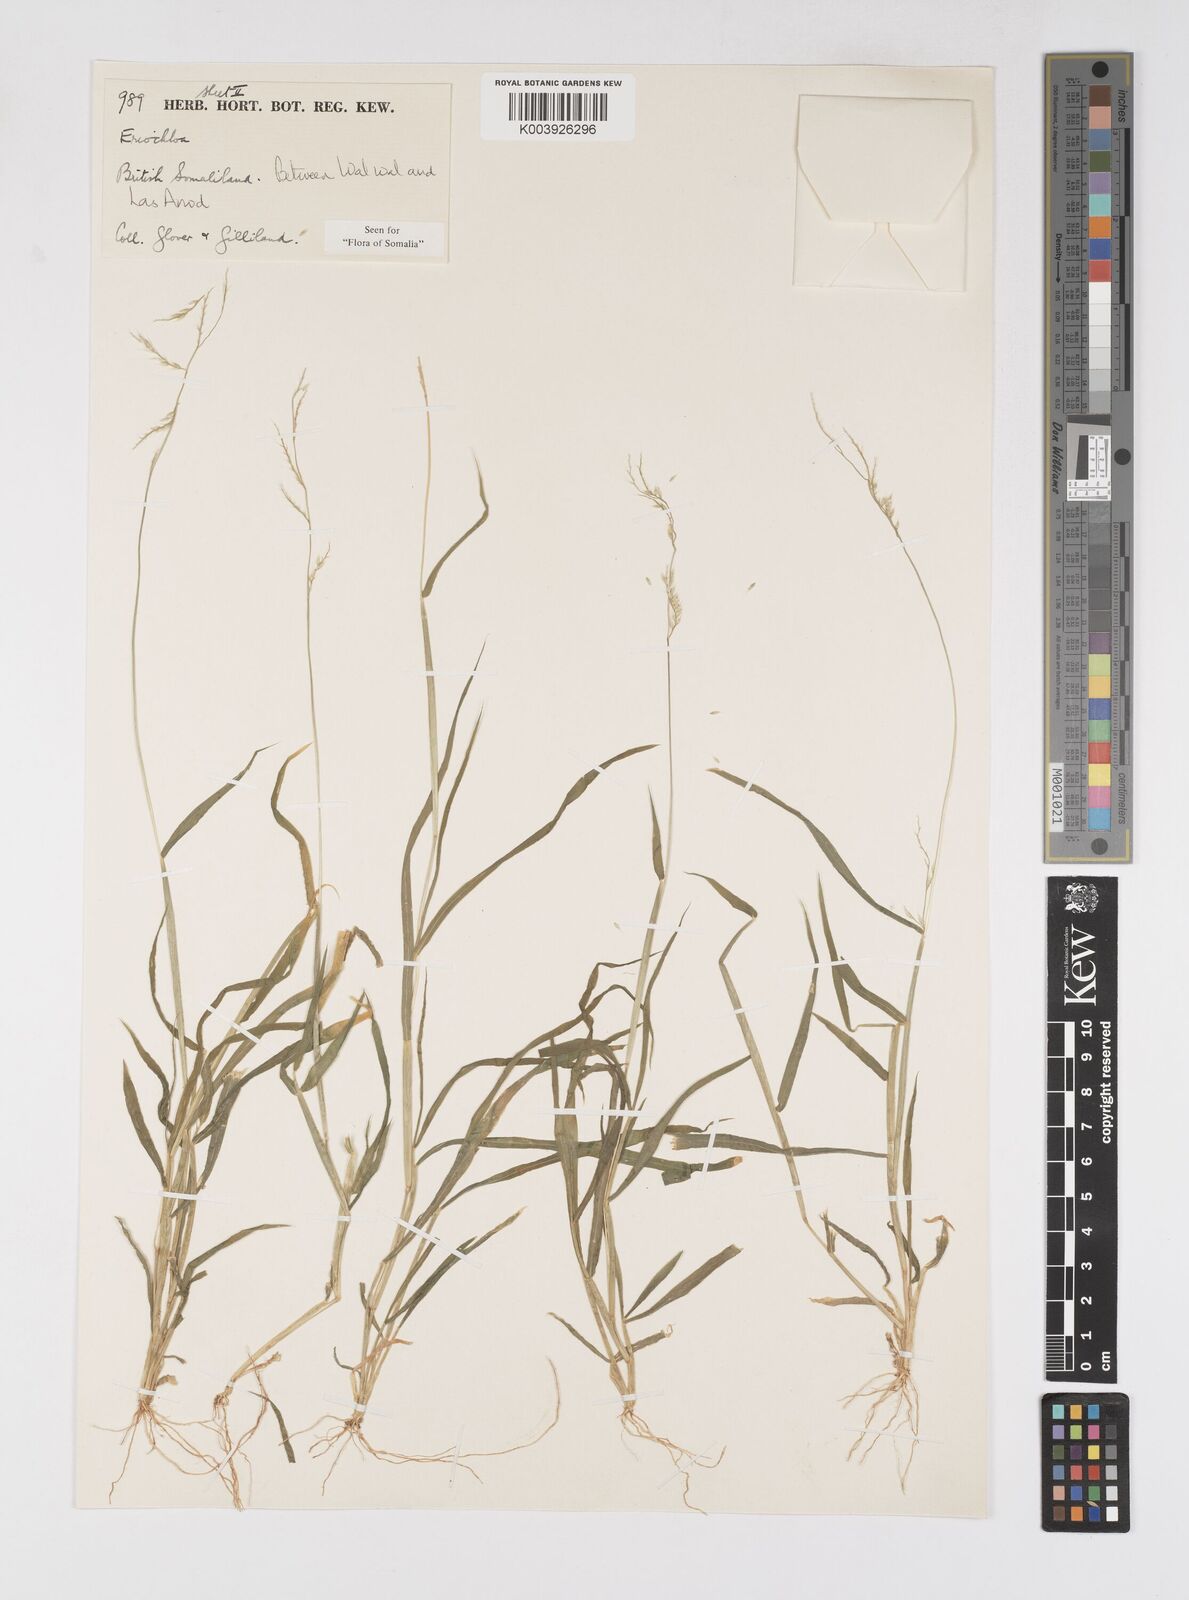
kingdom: Plantae
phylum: Tracheophyta
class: Liliopsida
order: Poales
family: Poaceae
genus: Eriochloa
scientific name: Eriochloa barbatus
